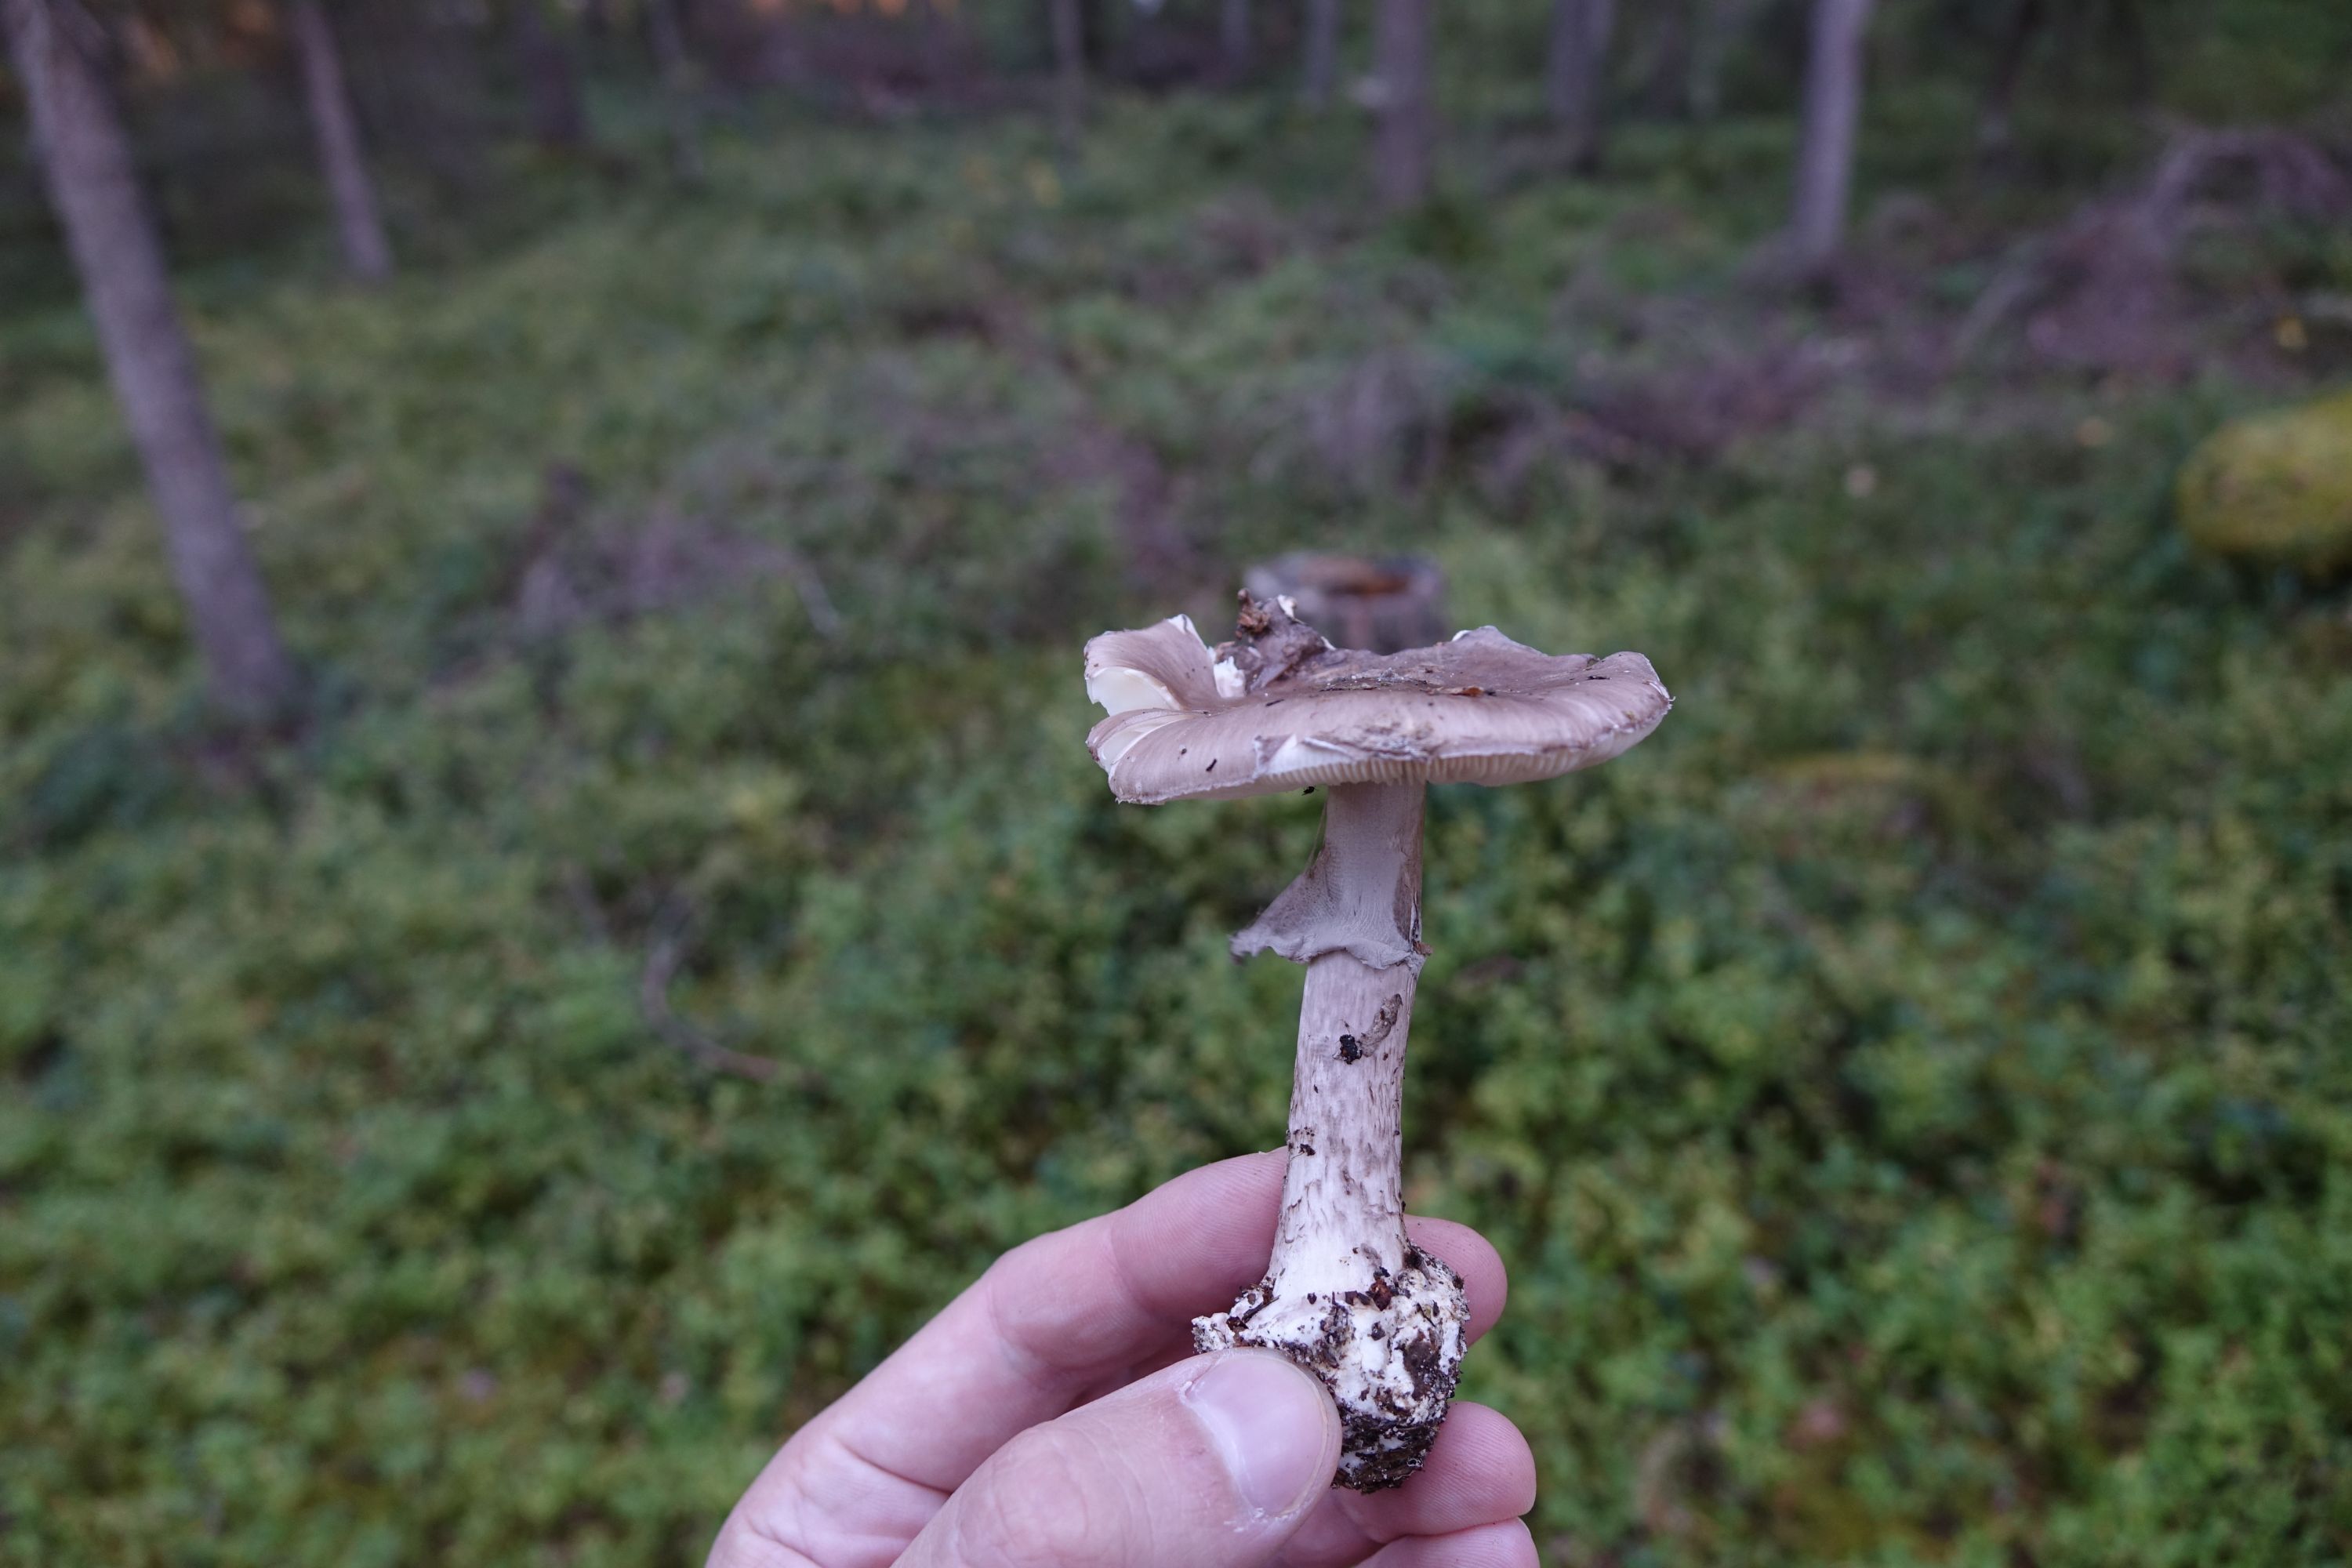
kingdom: Fungi
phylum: Basidiomycota
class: Agaricomycetes
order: Agaricales
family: Amanitaceae
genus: Amanita
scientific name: Amanita porphyria
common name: Grey veiled amanita
